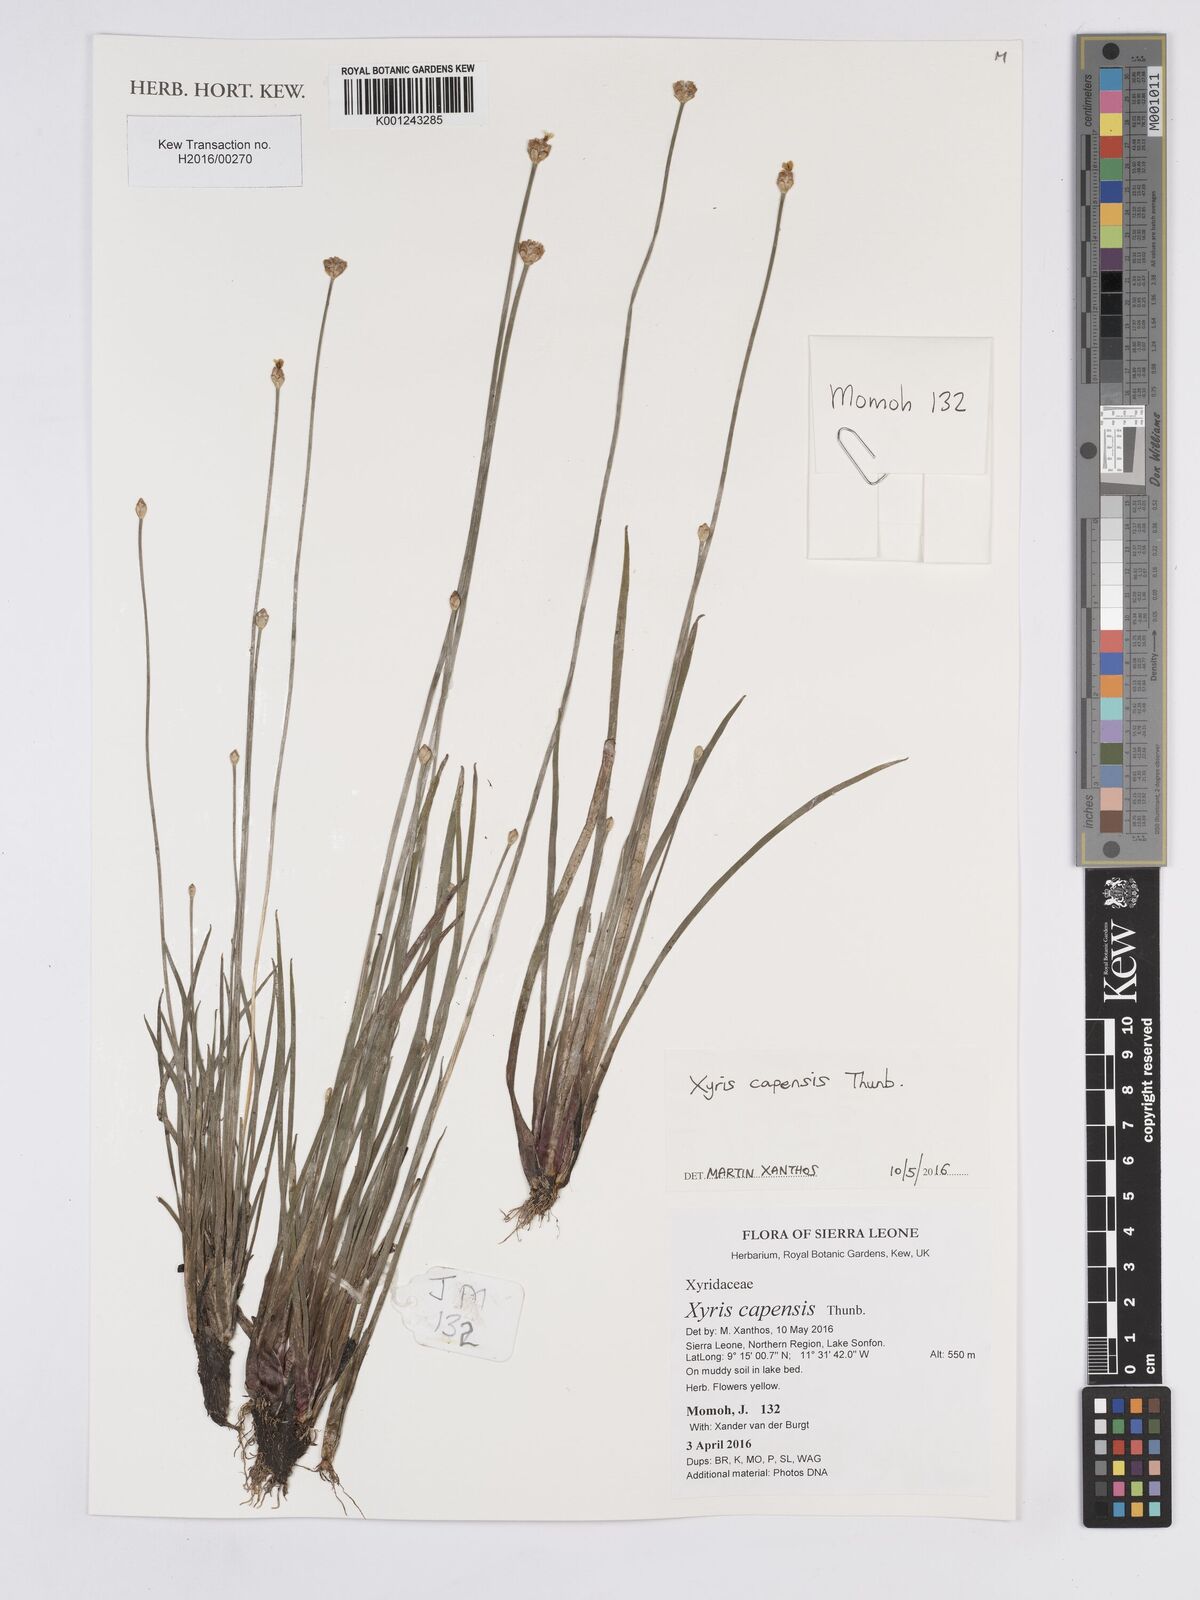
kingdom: Plantae
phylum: Tracheophyta
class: Liliopsida
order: Poales
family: Xyridaceae
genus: Xyris
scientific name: Xyris capensis
